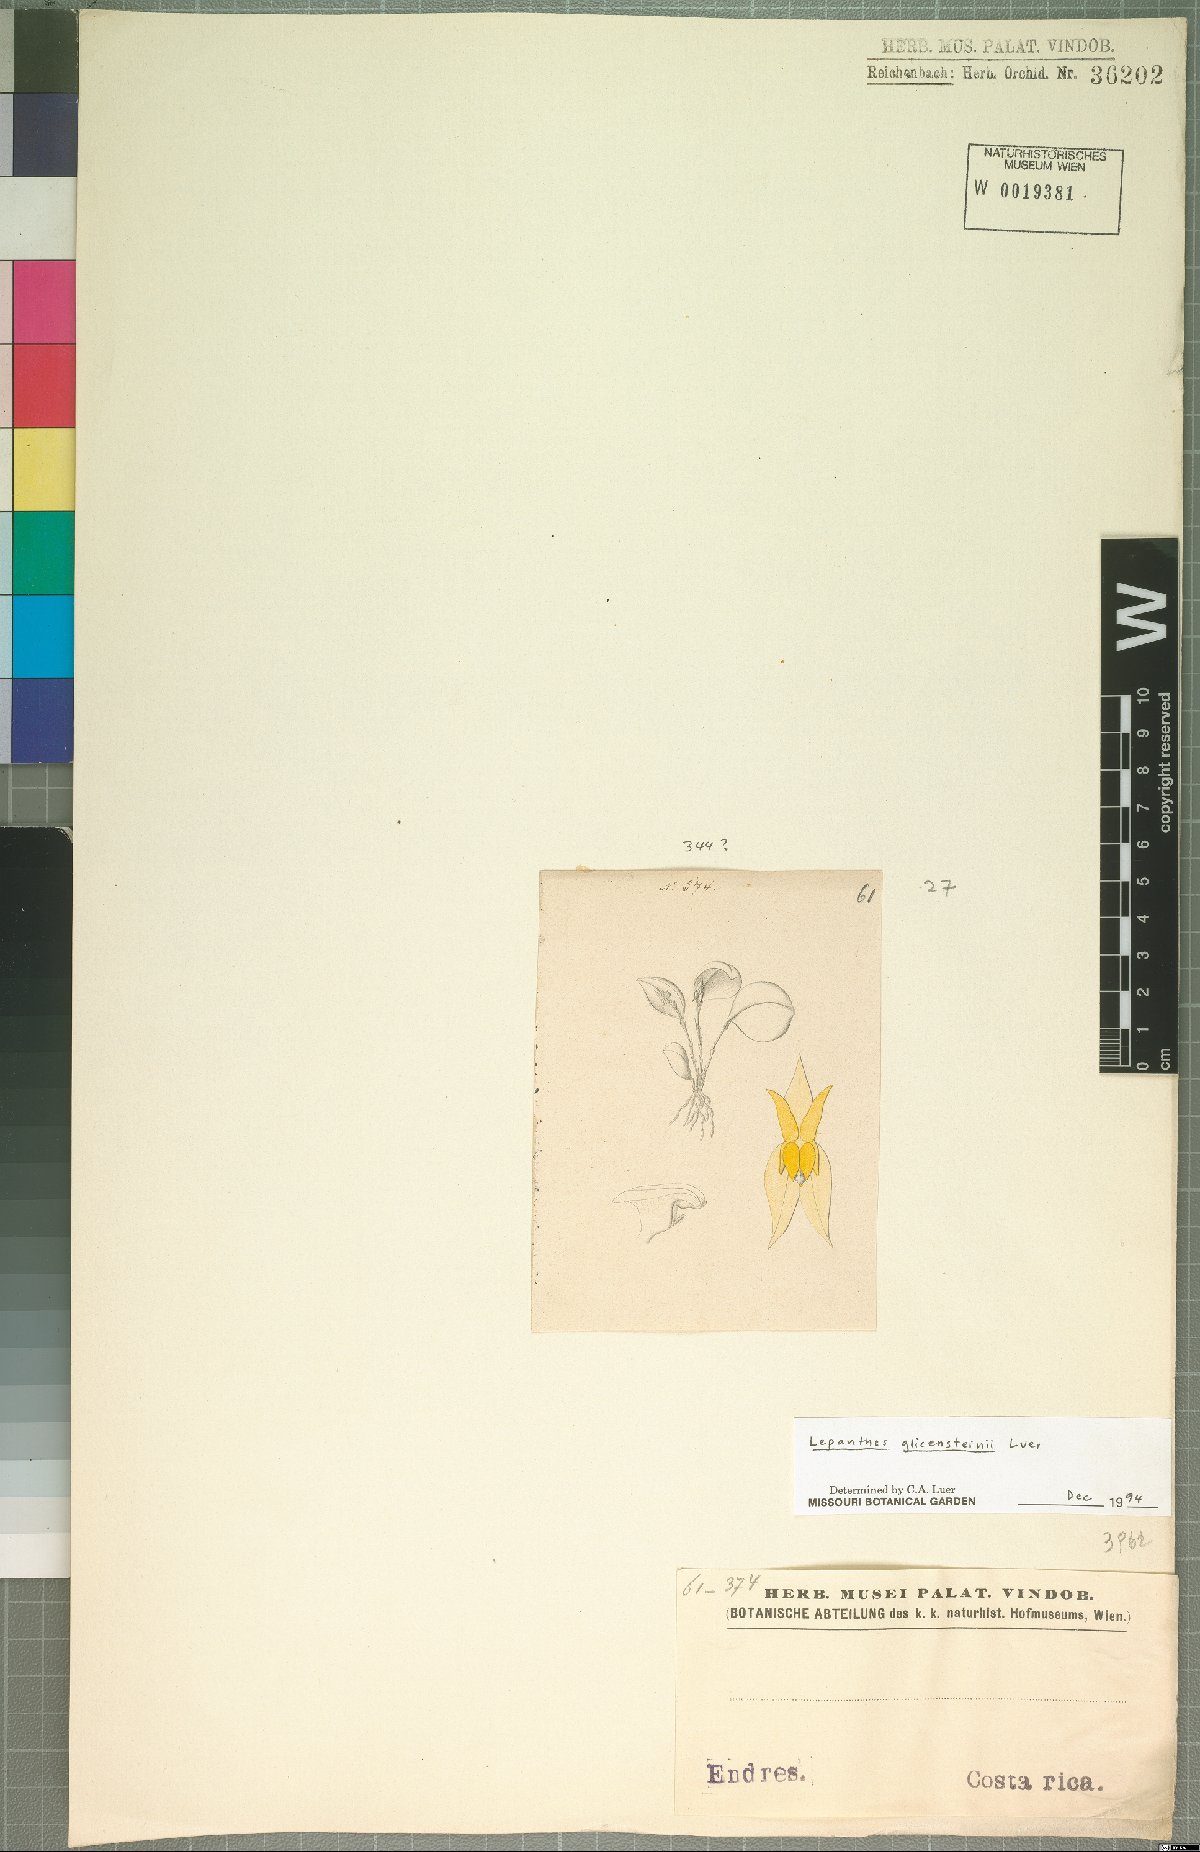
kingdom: Plantae
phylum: Tracheophyta
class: Liliopsida
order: Asparagales
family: Orchidaceae
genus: Lepanthes
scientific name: Lepanthes glicensteinii
